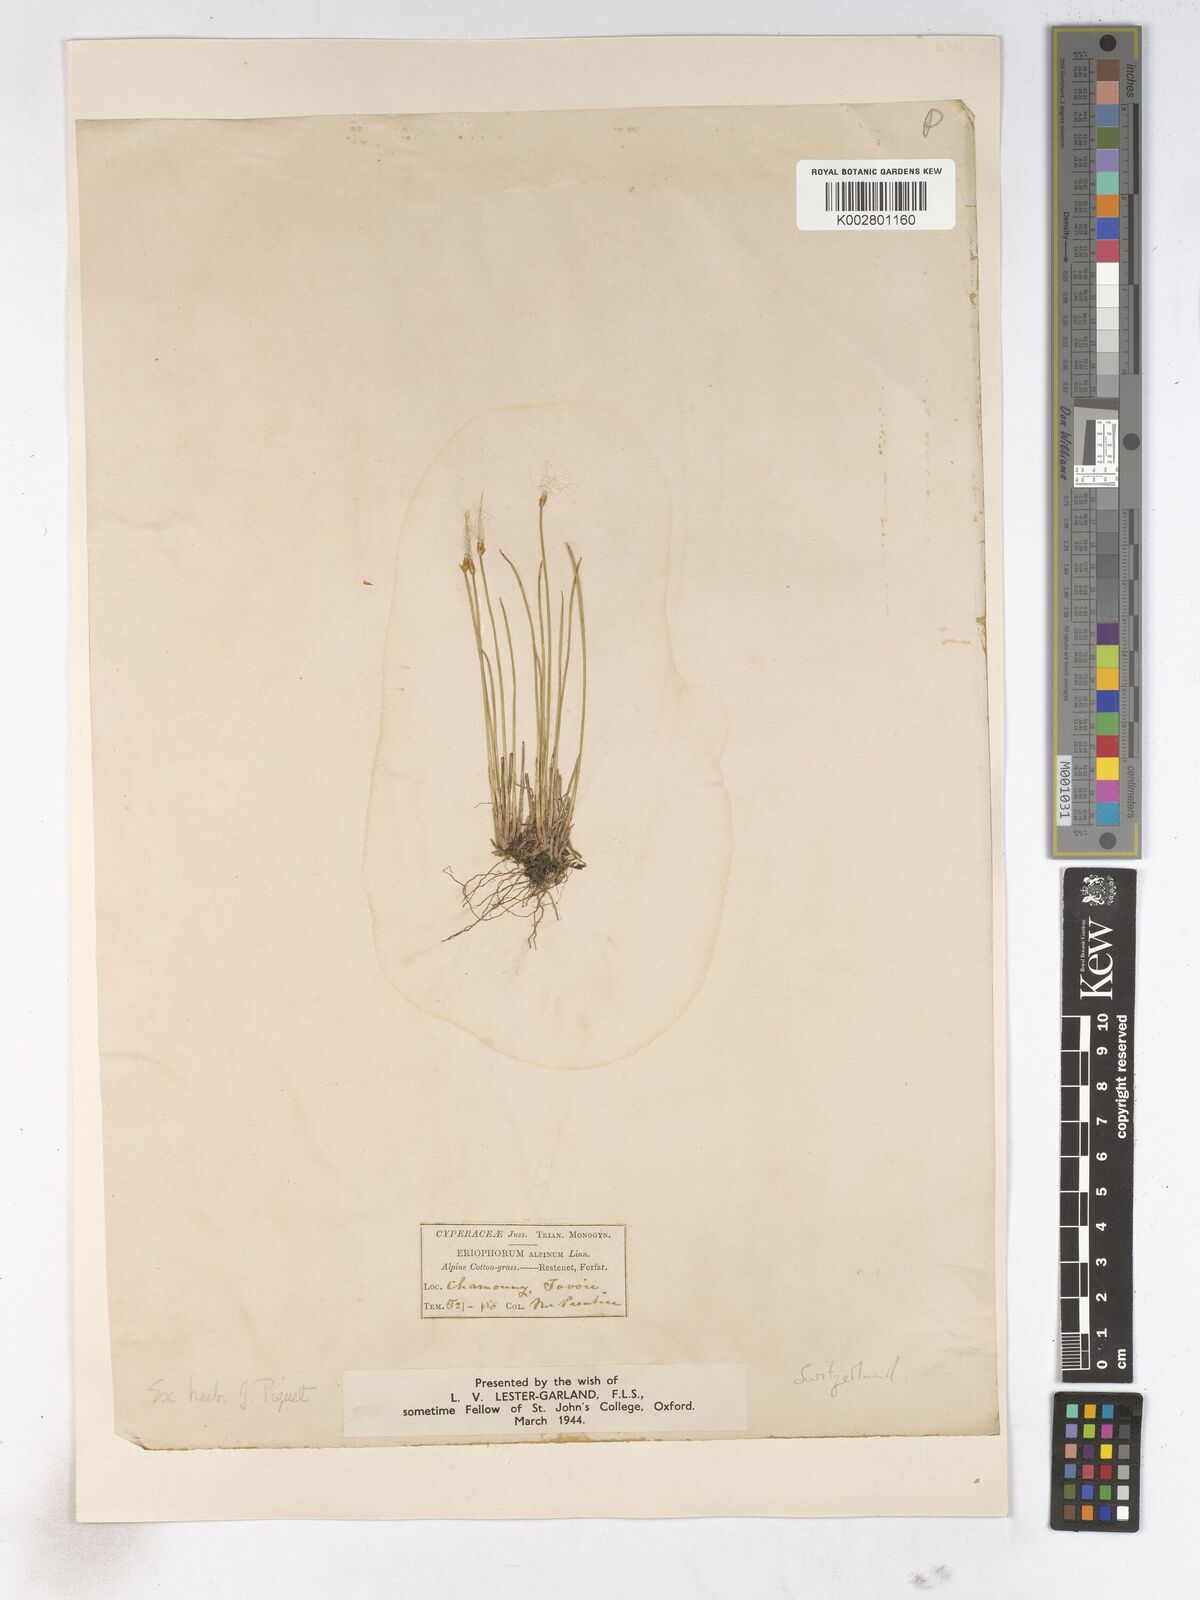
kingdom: Plantae
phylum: Tracheophyta
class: Liliopsida
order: Poales
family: Cyperaceae
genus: Trichophorum
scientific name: Trichophorum cespitosum
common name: Cespitose bulrush
